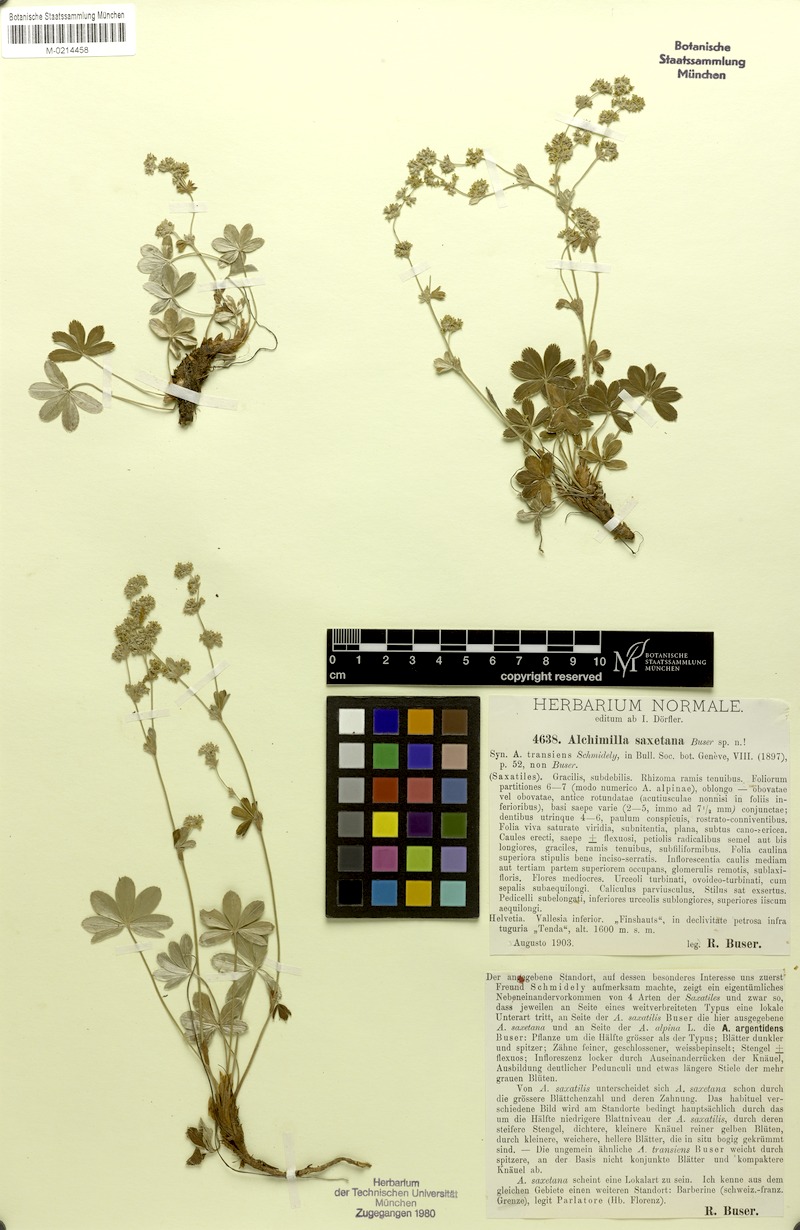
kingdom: Plantae
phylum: Tracheophyta
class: Magnoliopsida
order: Rosales
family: Rosaceae
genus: Alchemilla
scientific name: Alchemilla saxetana
